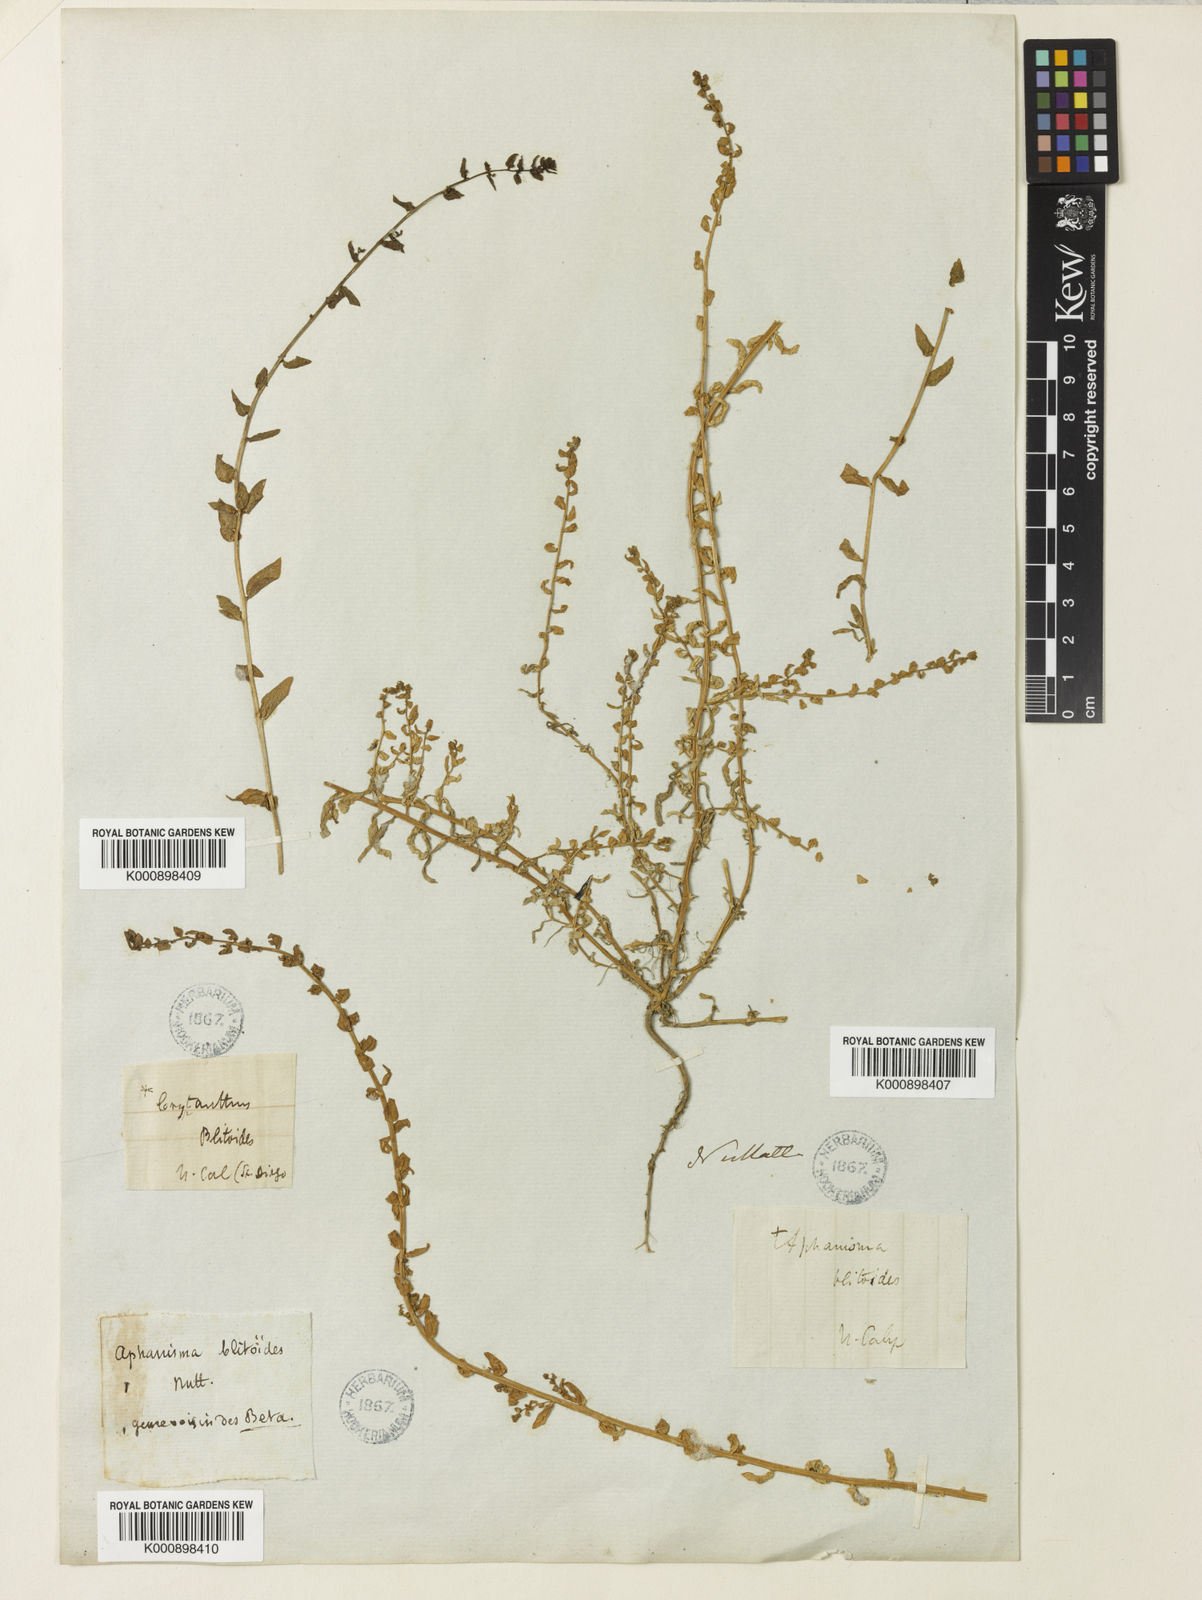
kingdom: Plantae
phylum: Tracheophyta
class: Magnoliopsida
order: Caryophyllales
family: Amaranthaceae
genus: Aphanisma
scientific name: Aphanisma blitoides
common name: Aphanisma
